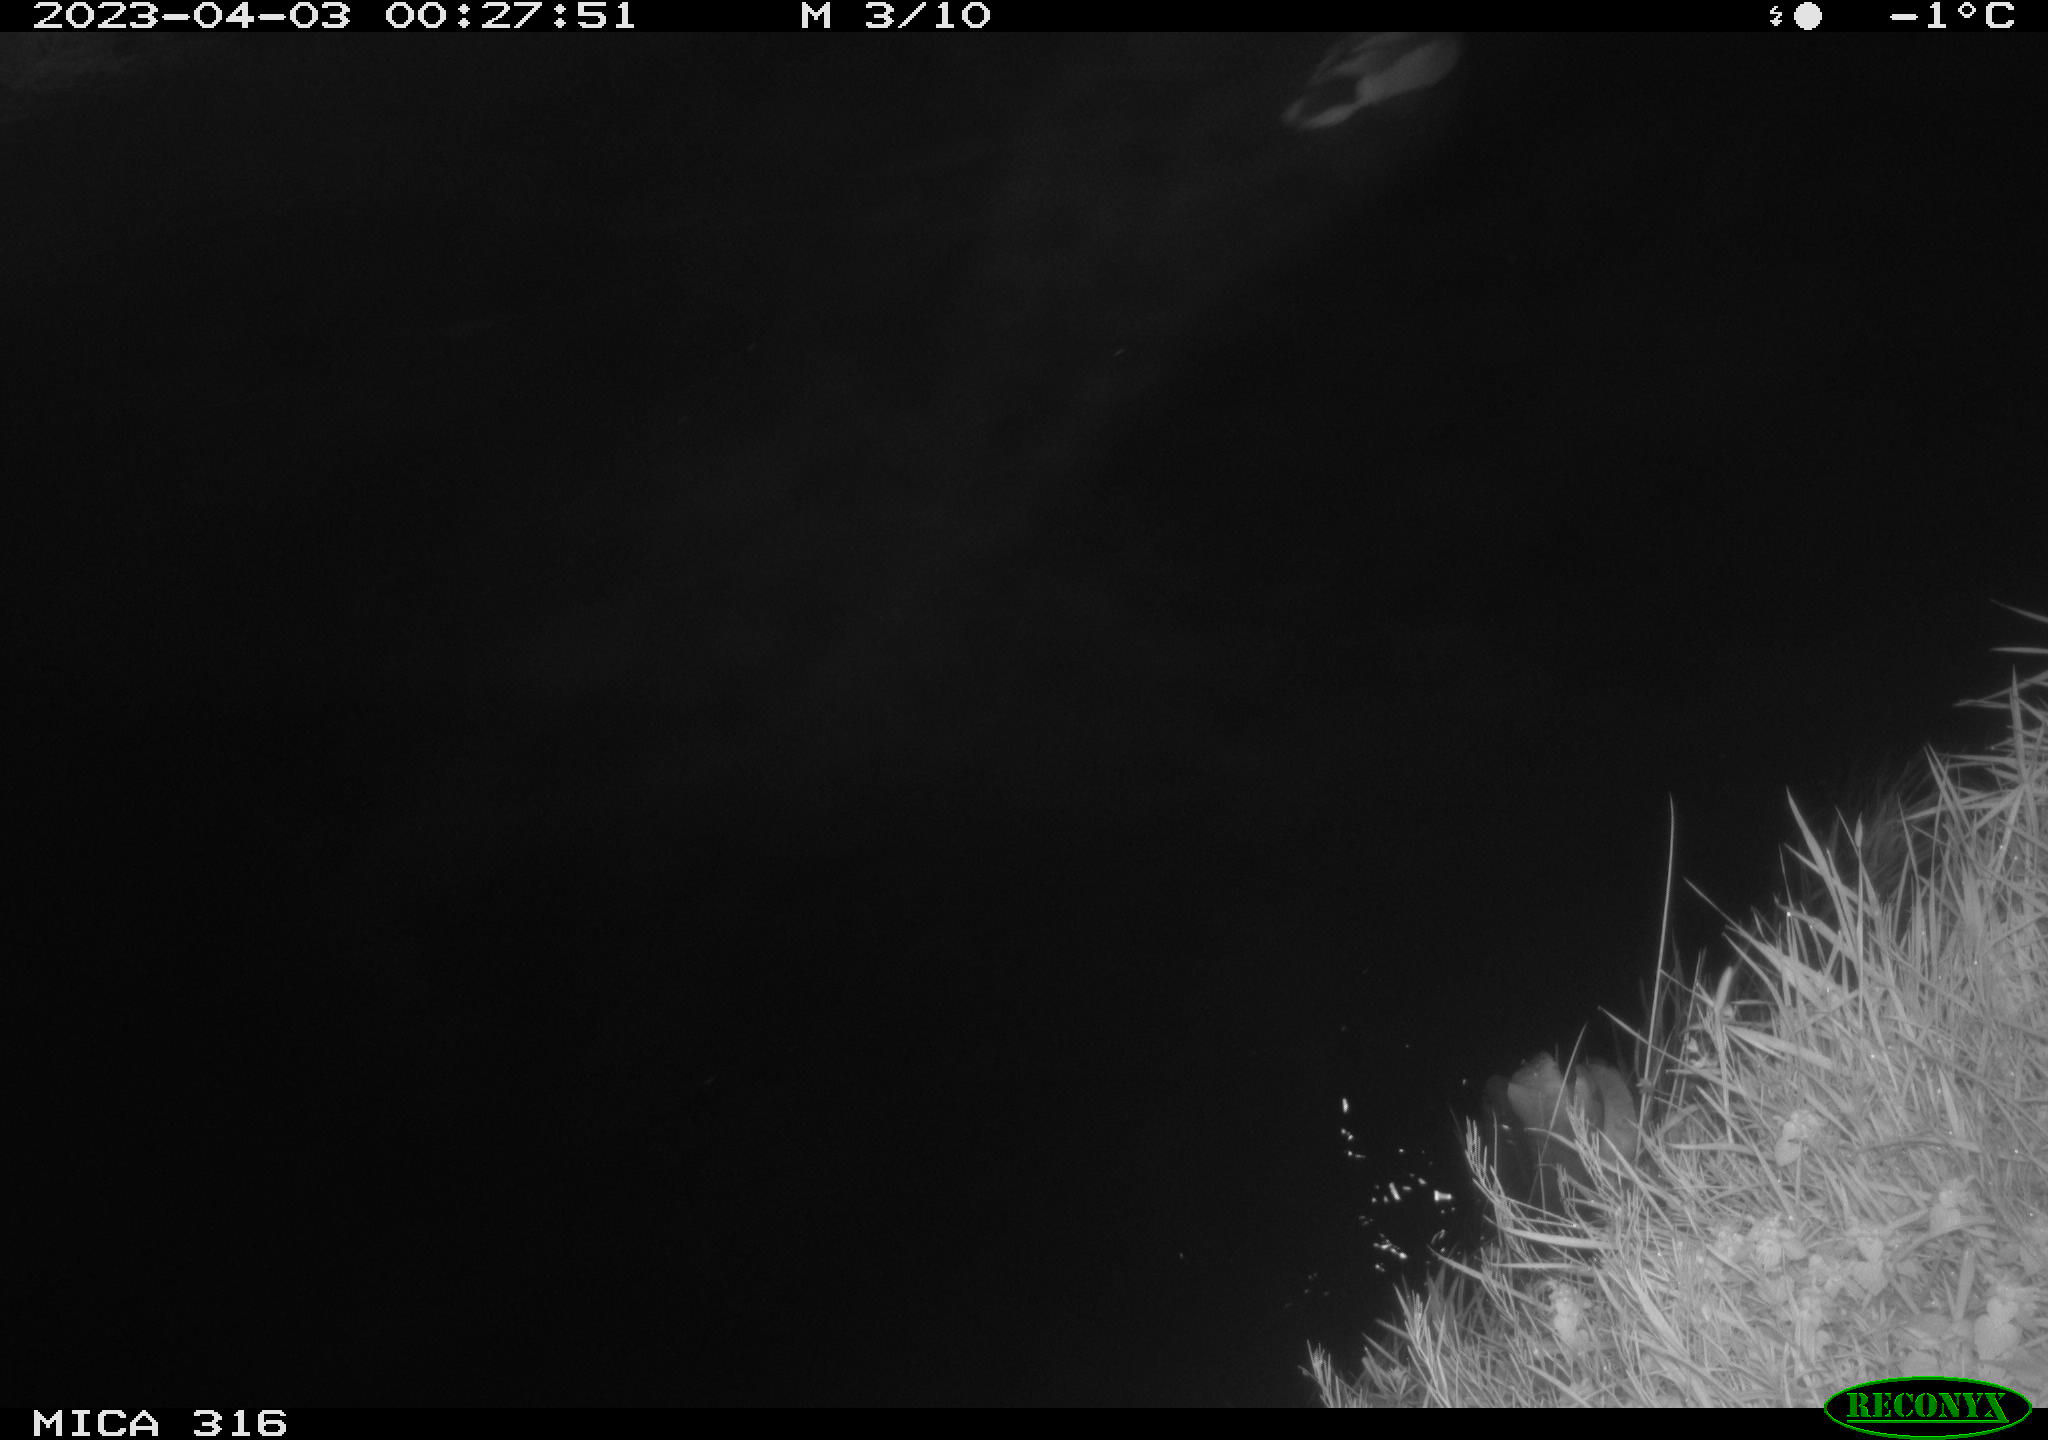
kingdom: Animalia
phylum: Chordata
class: Aves
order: Anseriformes
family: Anatidae
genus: Anas
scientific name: Anas
